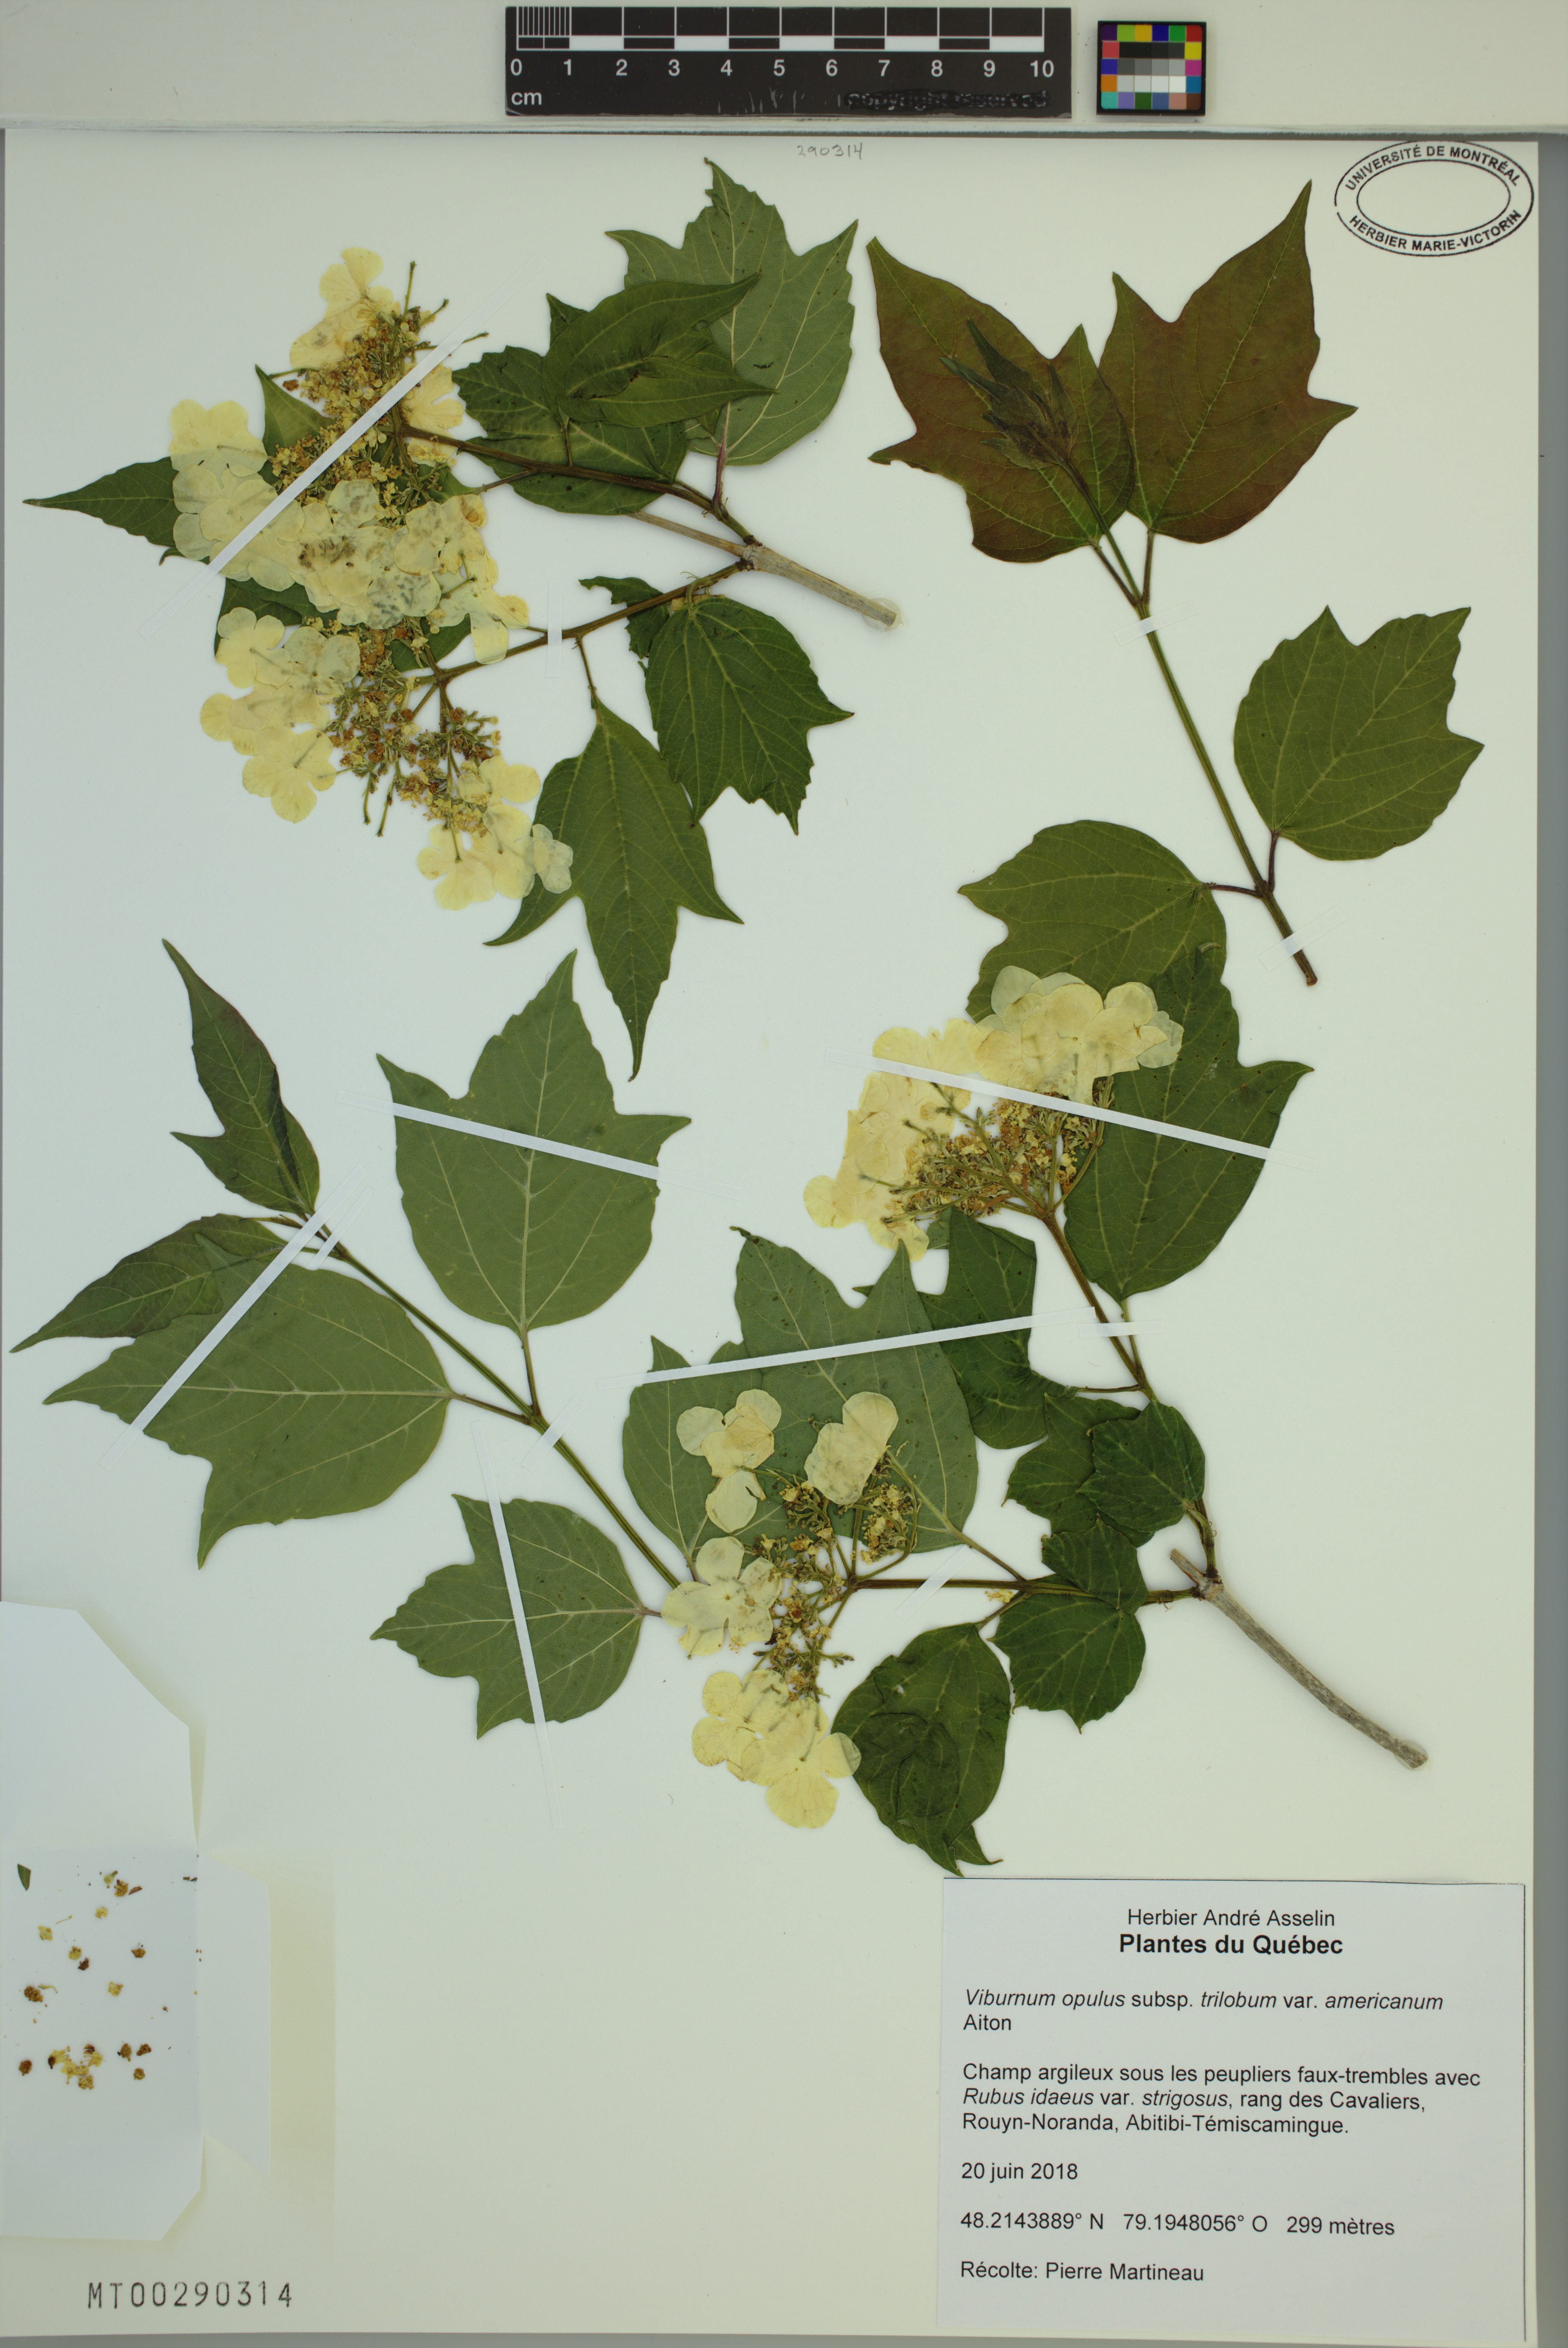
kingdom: Plantae
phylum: Tracheophyta
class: Magnoliopsida
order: Dipsacales
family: Viburnaceae
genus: Viburnum
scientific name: Viburnum trilobum
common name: American cranberrybush
